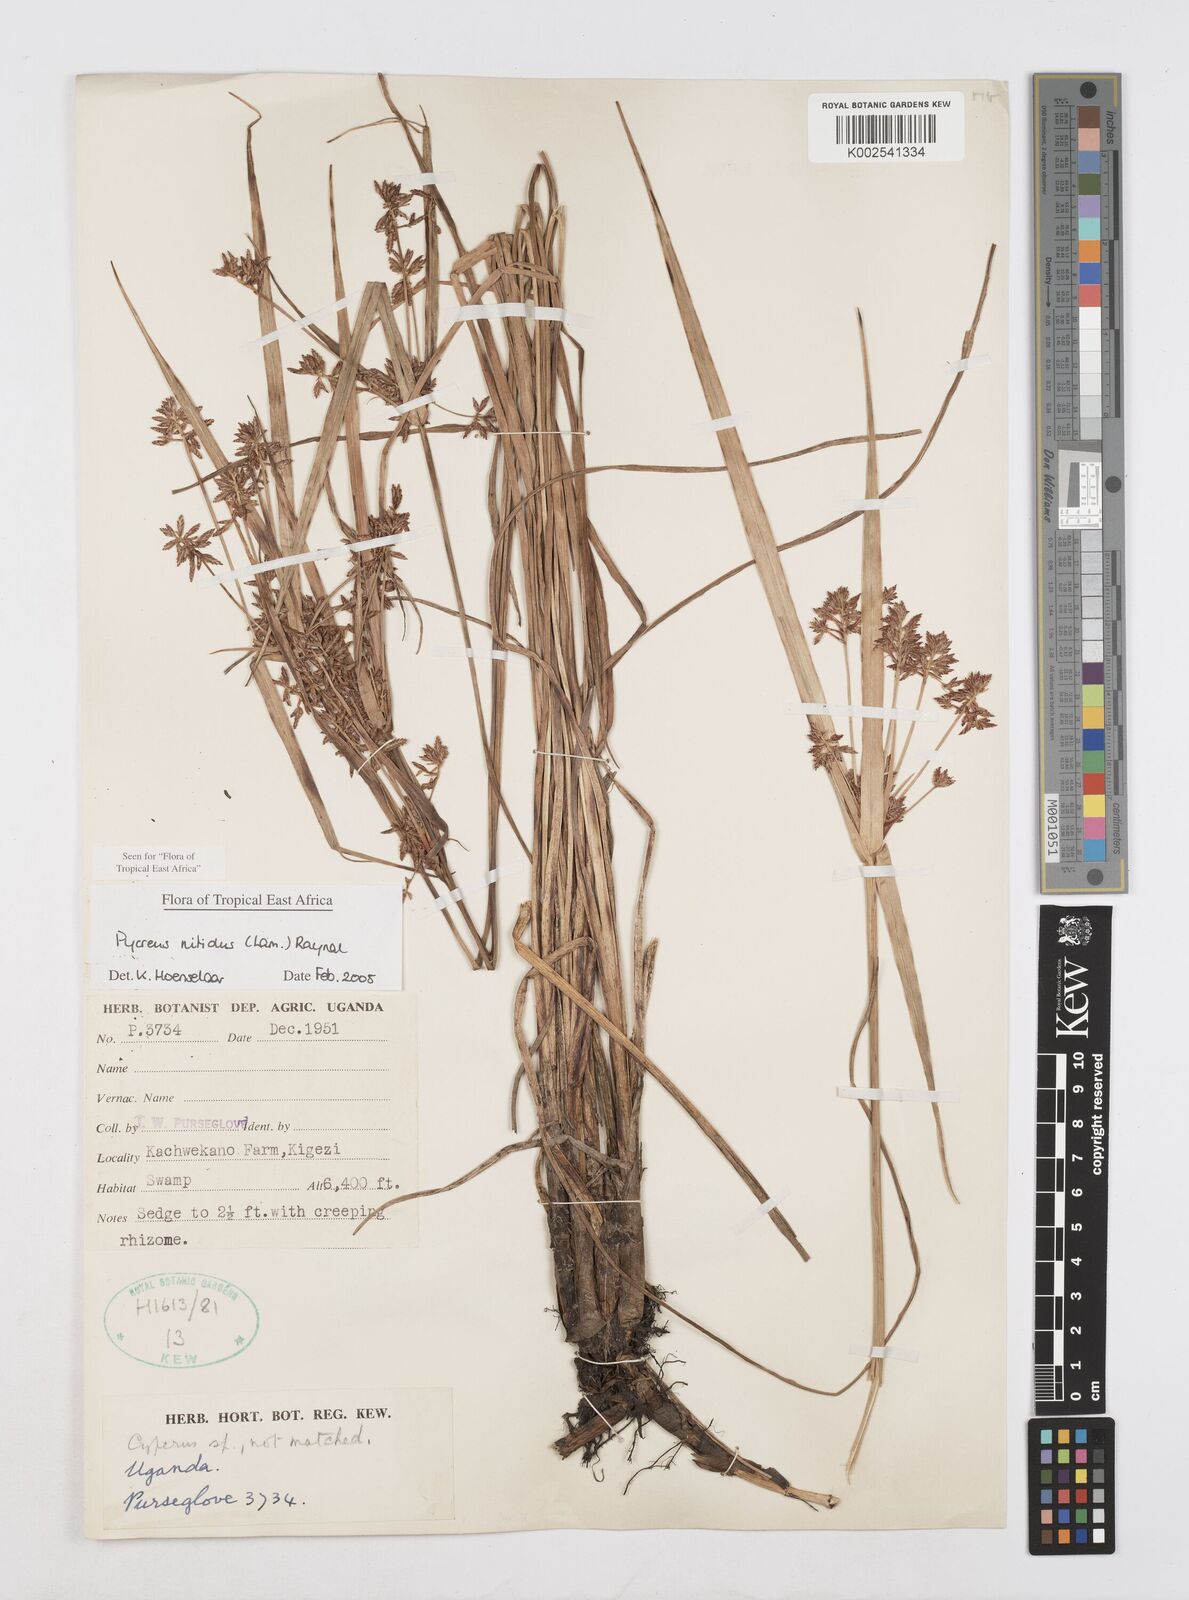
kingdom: Plantae
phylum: Tracheophyta
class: Liliopsida
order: Poales
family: Cyperaceae
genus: Cyperus
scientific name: Cyperus nitidus
